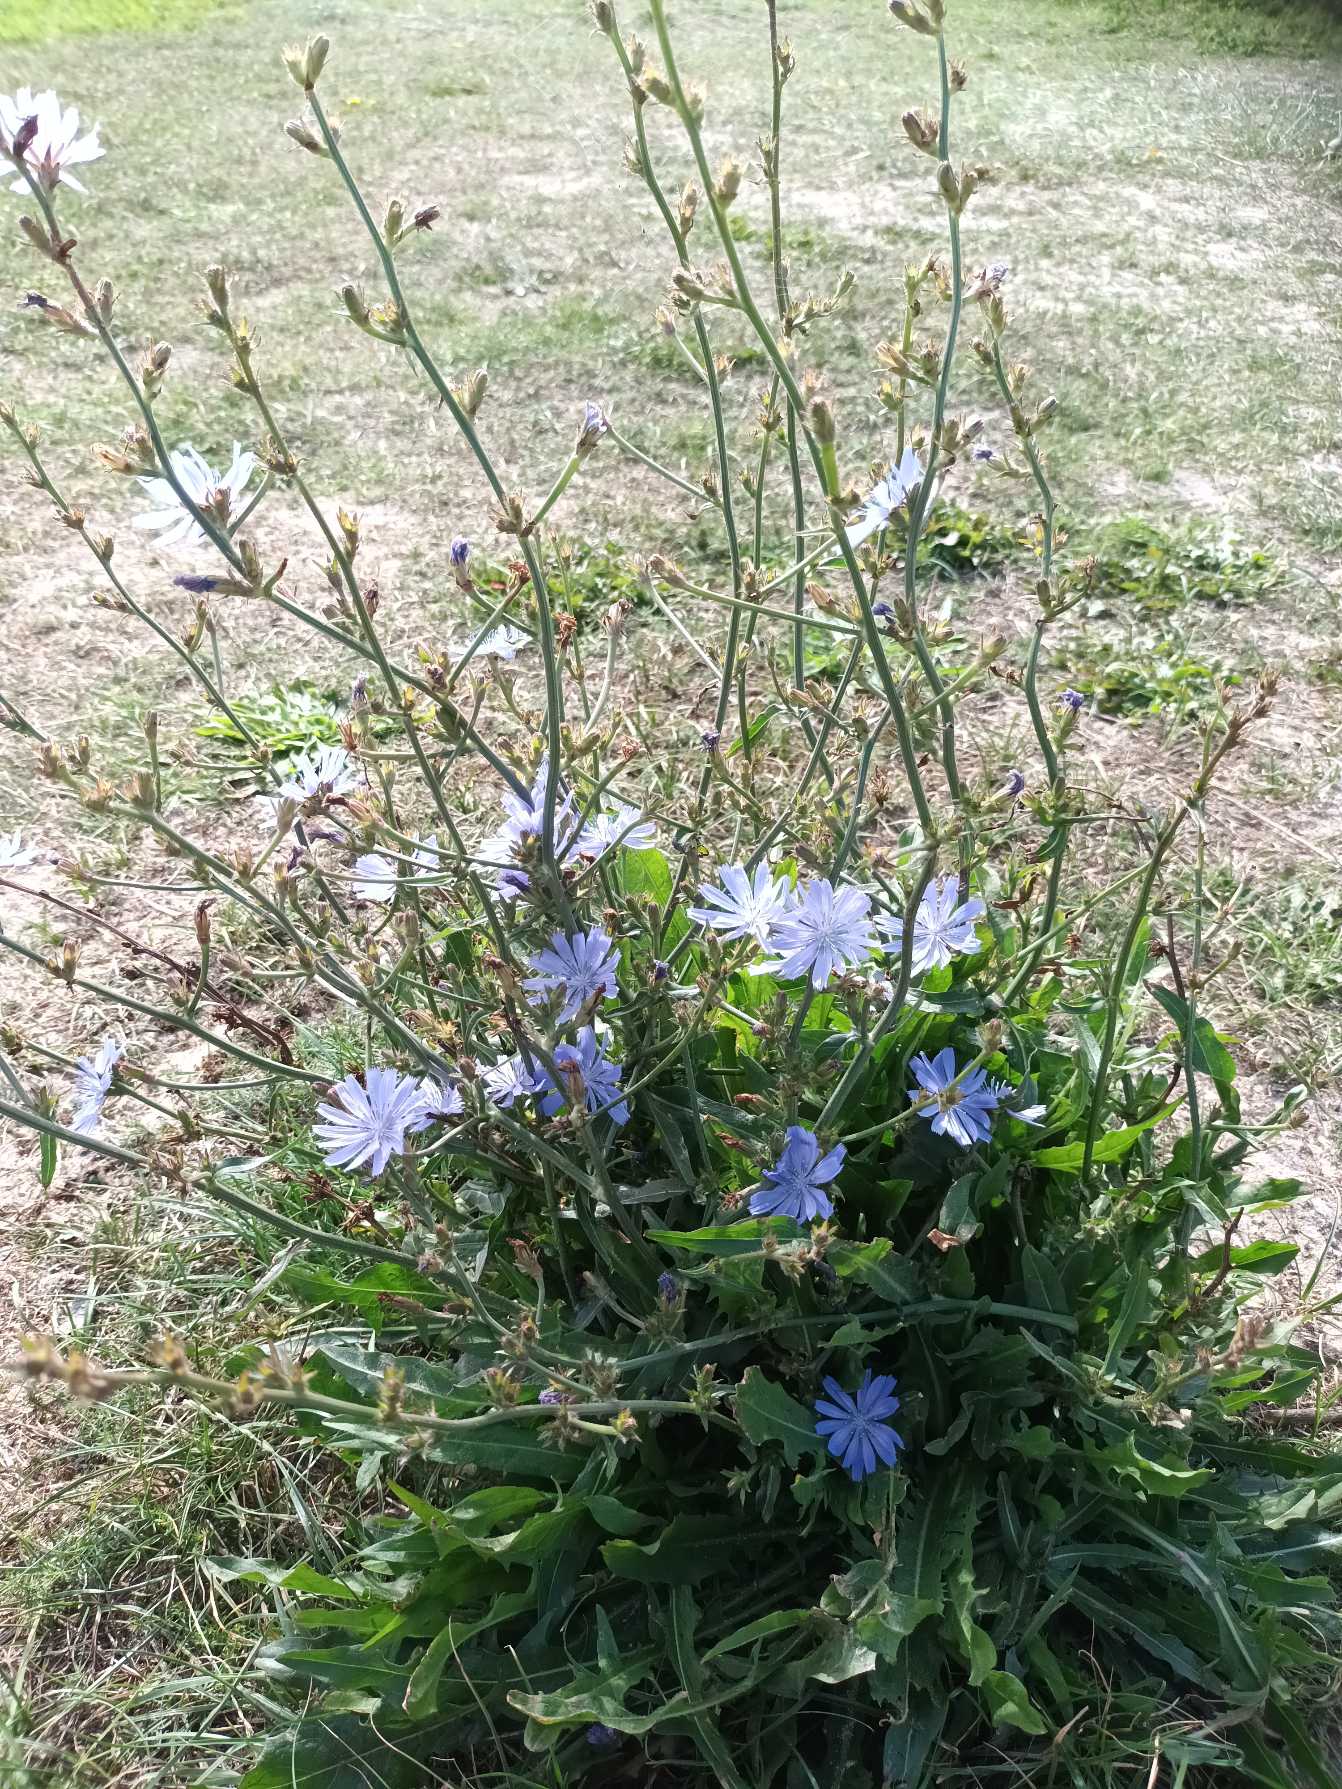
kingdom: Plantae
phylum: Tracheophyta
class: Magnoliopsida
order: Asterales
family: Asteraceae
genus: Cichorium
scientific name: Cichorium intybus
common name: Cikorie
